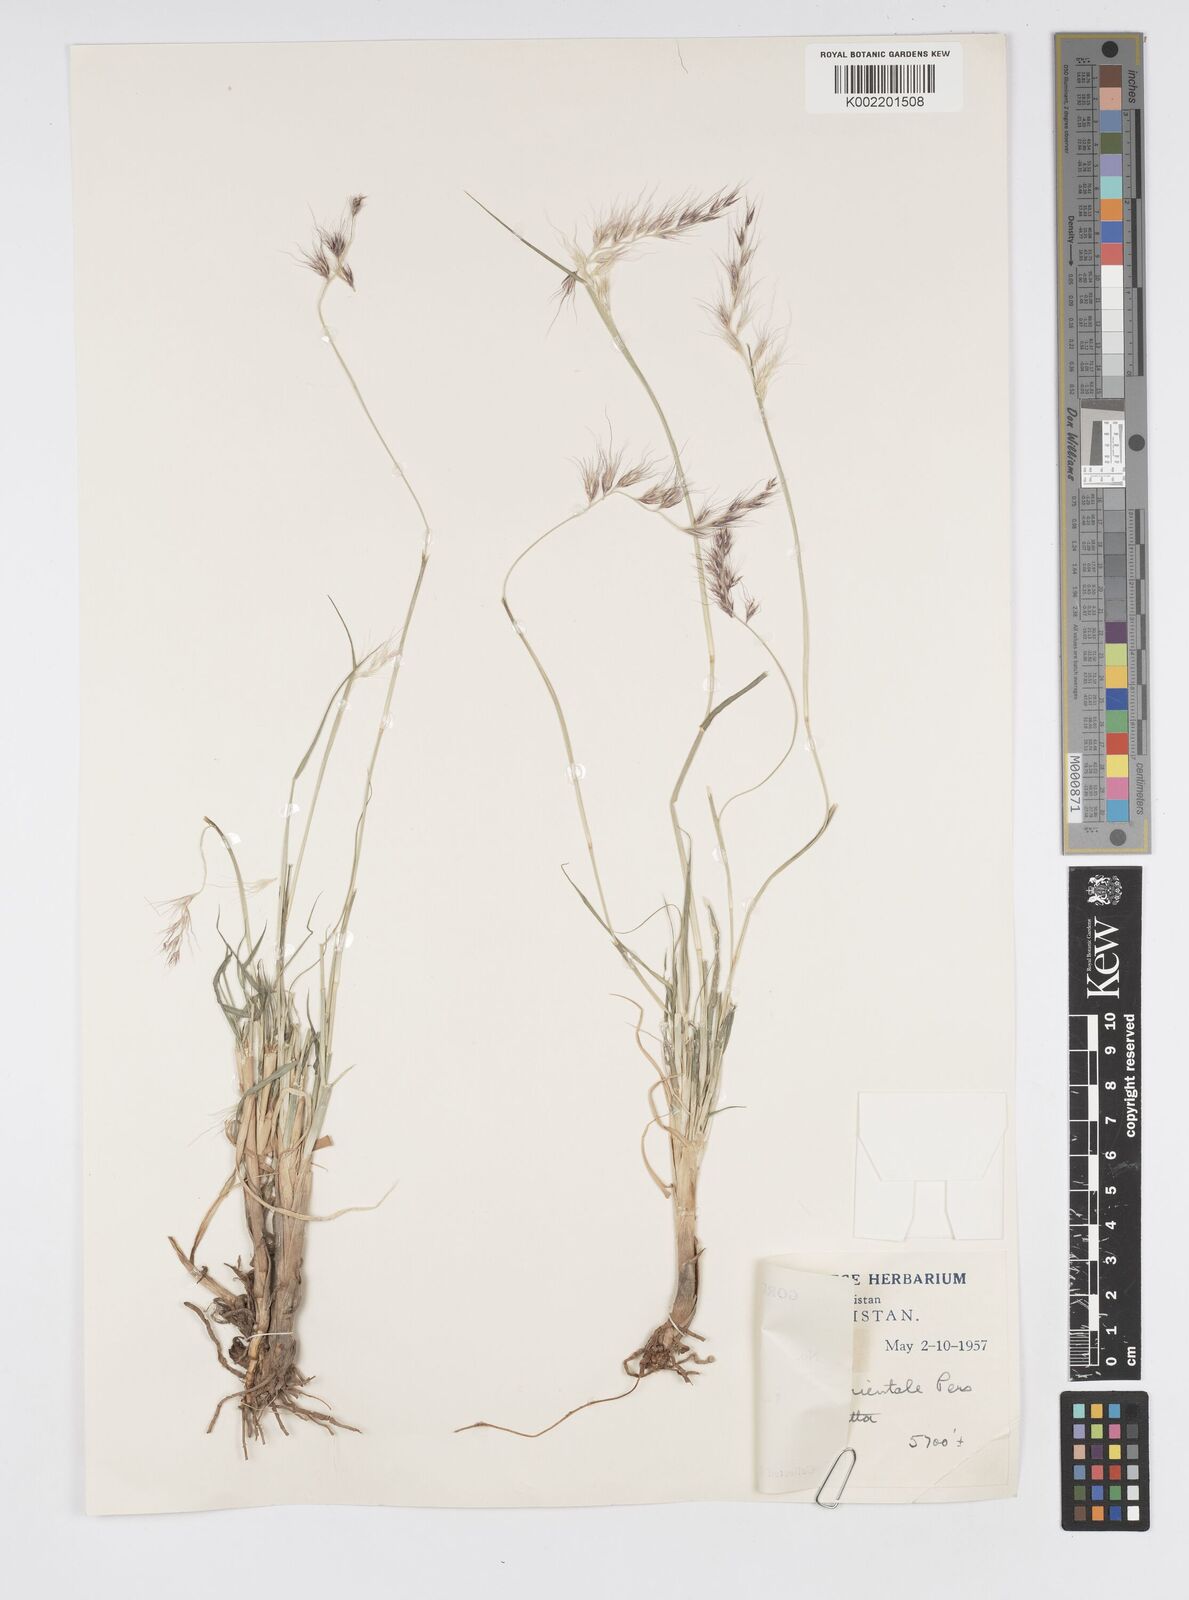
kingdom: Plantae
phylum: Tracheophyta
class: Liliopsida
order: Poales
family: Poaceae
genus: Cenchrus
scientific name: Cenchrus orientalis
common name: Oriental fountain grass
